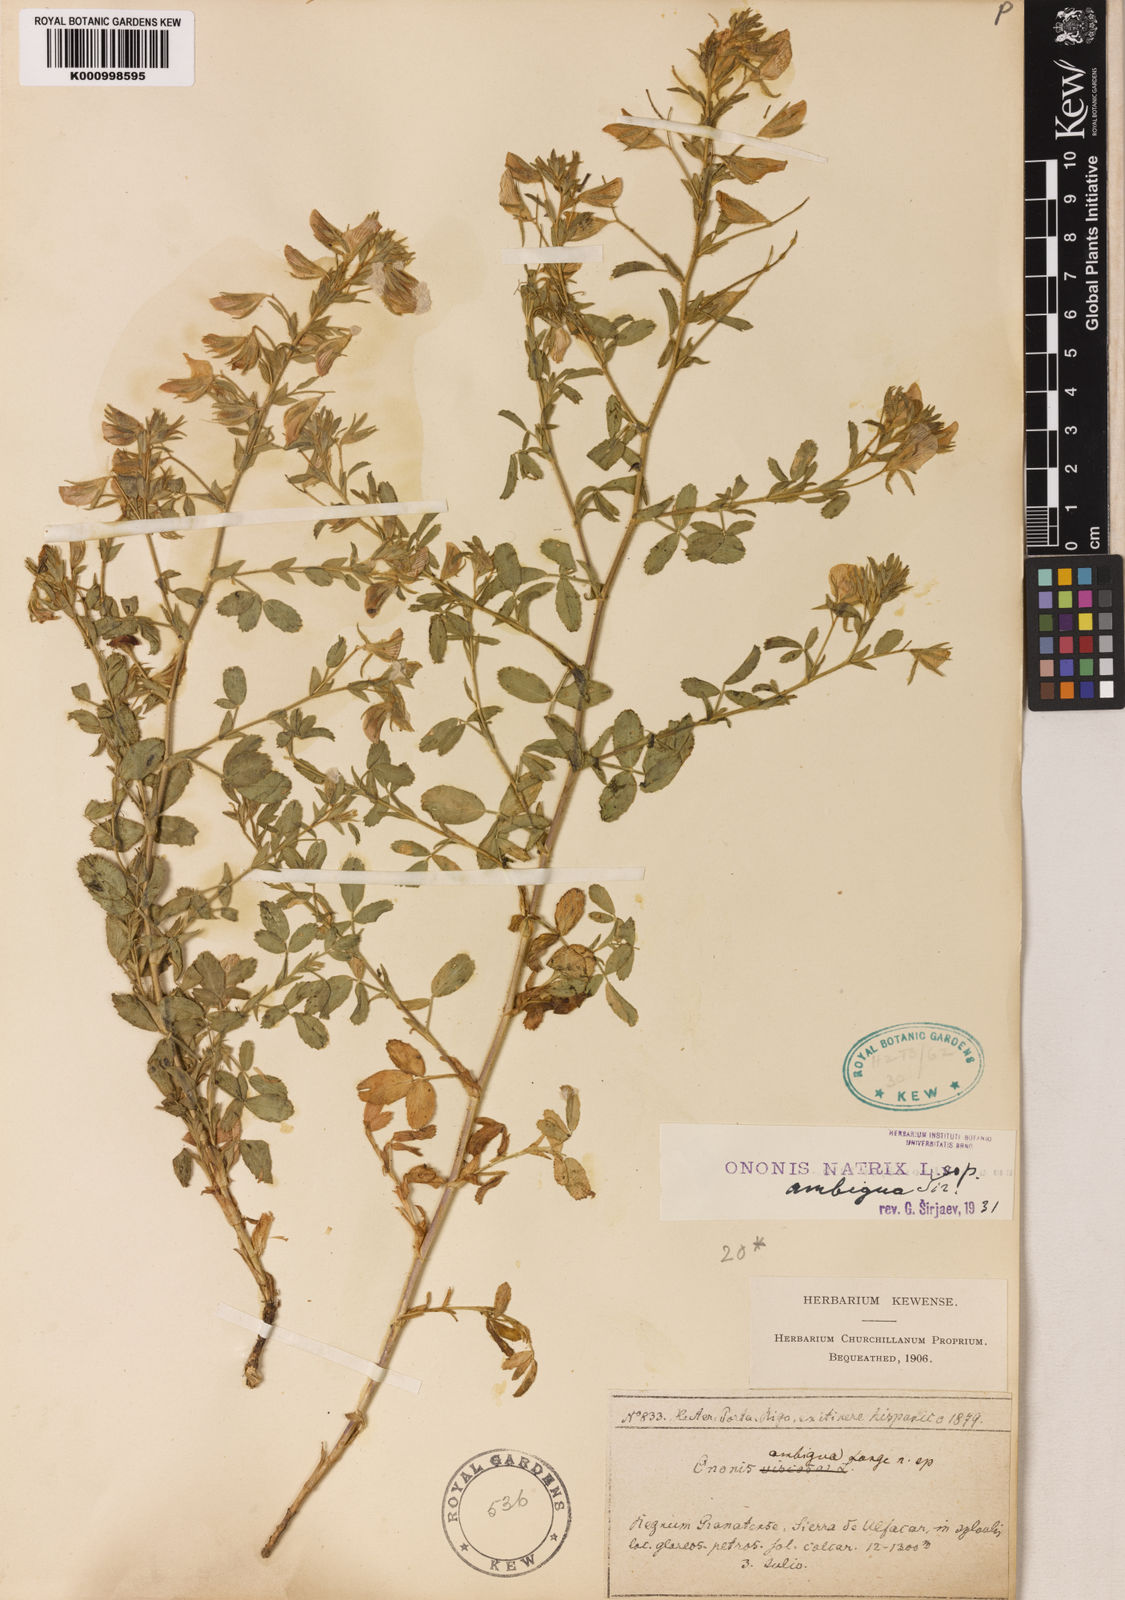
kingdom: Plantae
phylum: Tracheophyta
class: Magnoliopsida
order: Fabales
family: Fabaceae
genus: Ononis
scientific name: Ononis natrix
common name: Yellow restharrow
